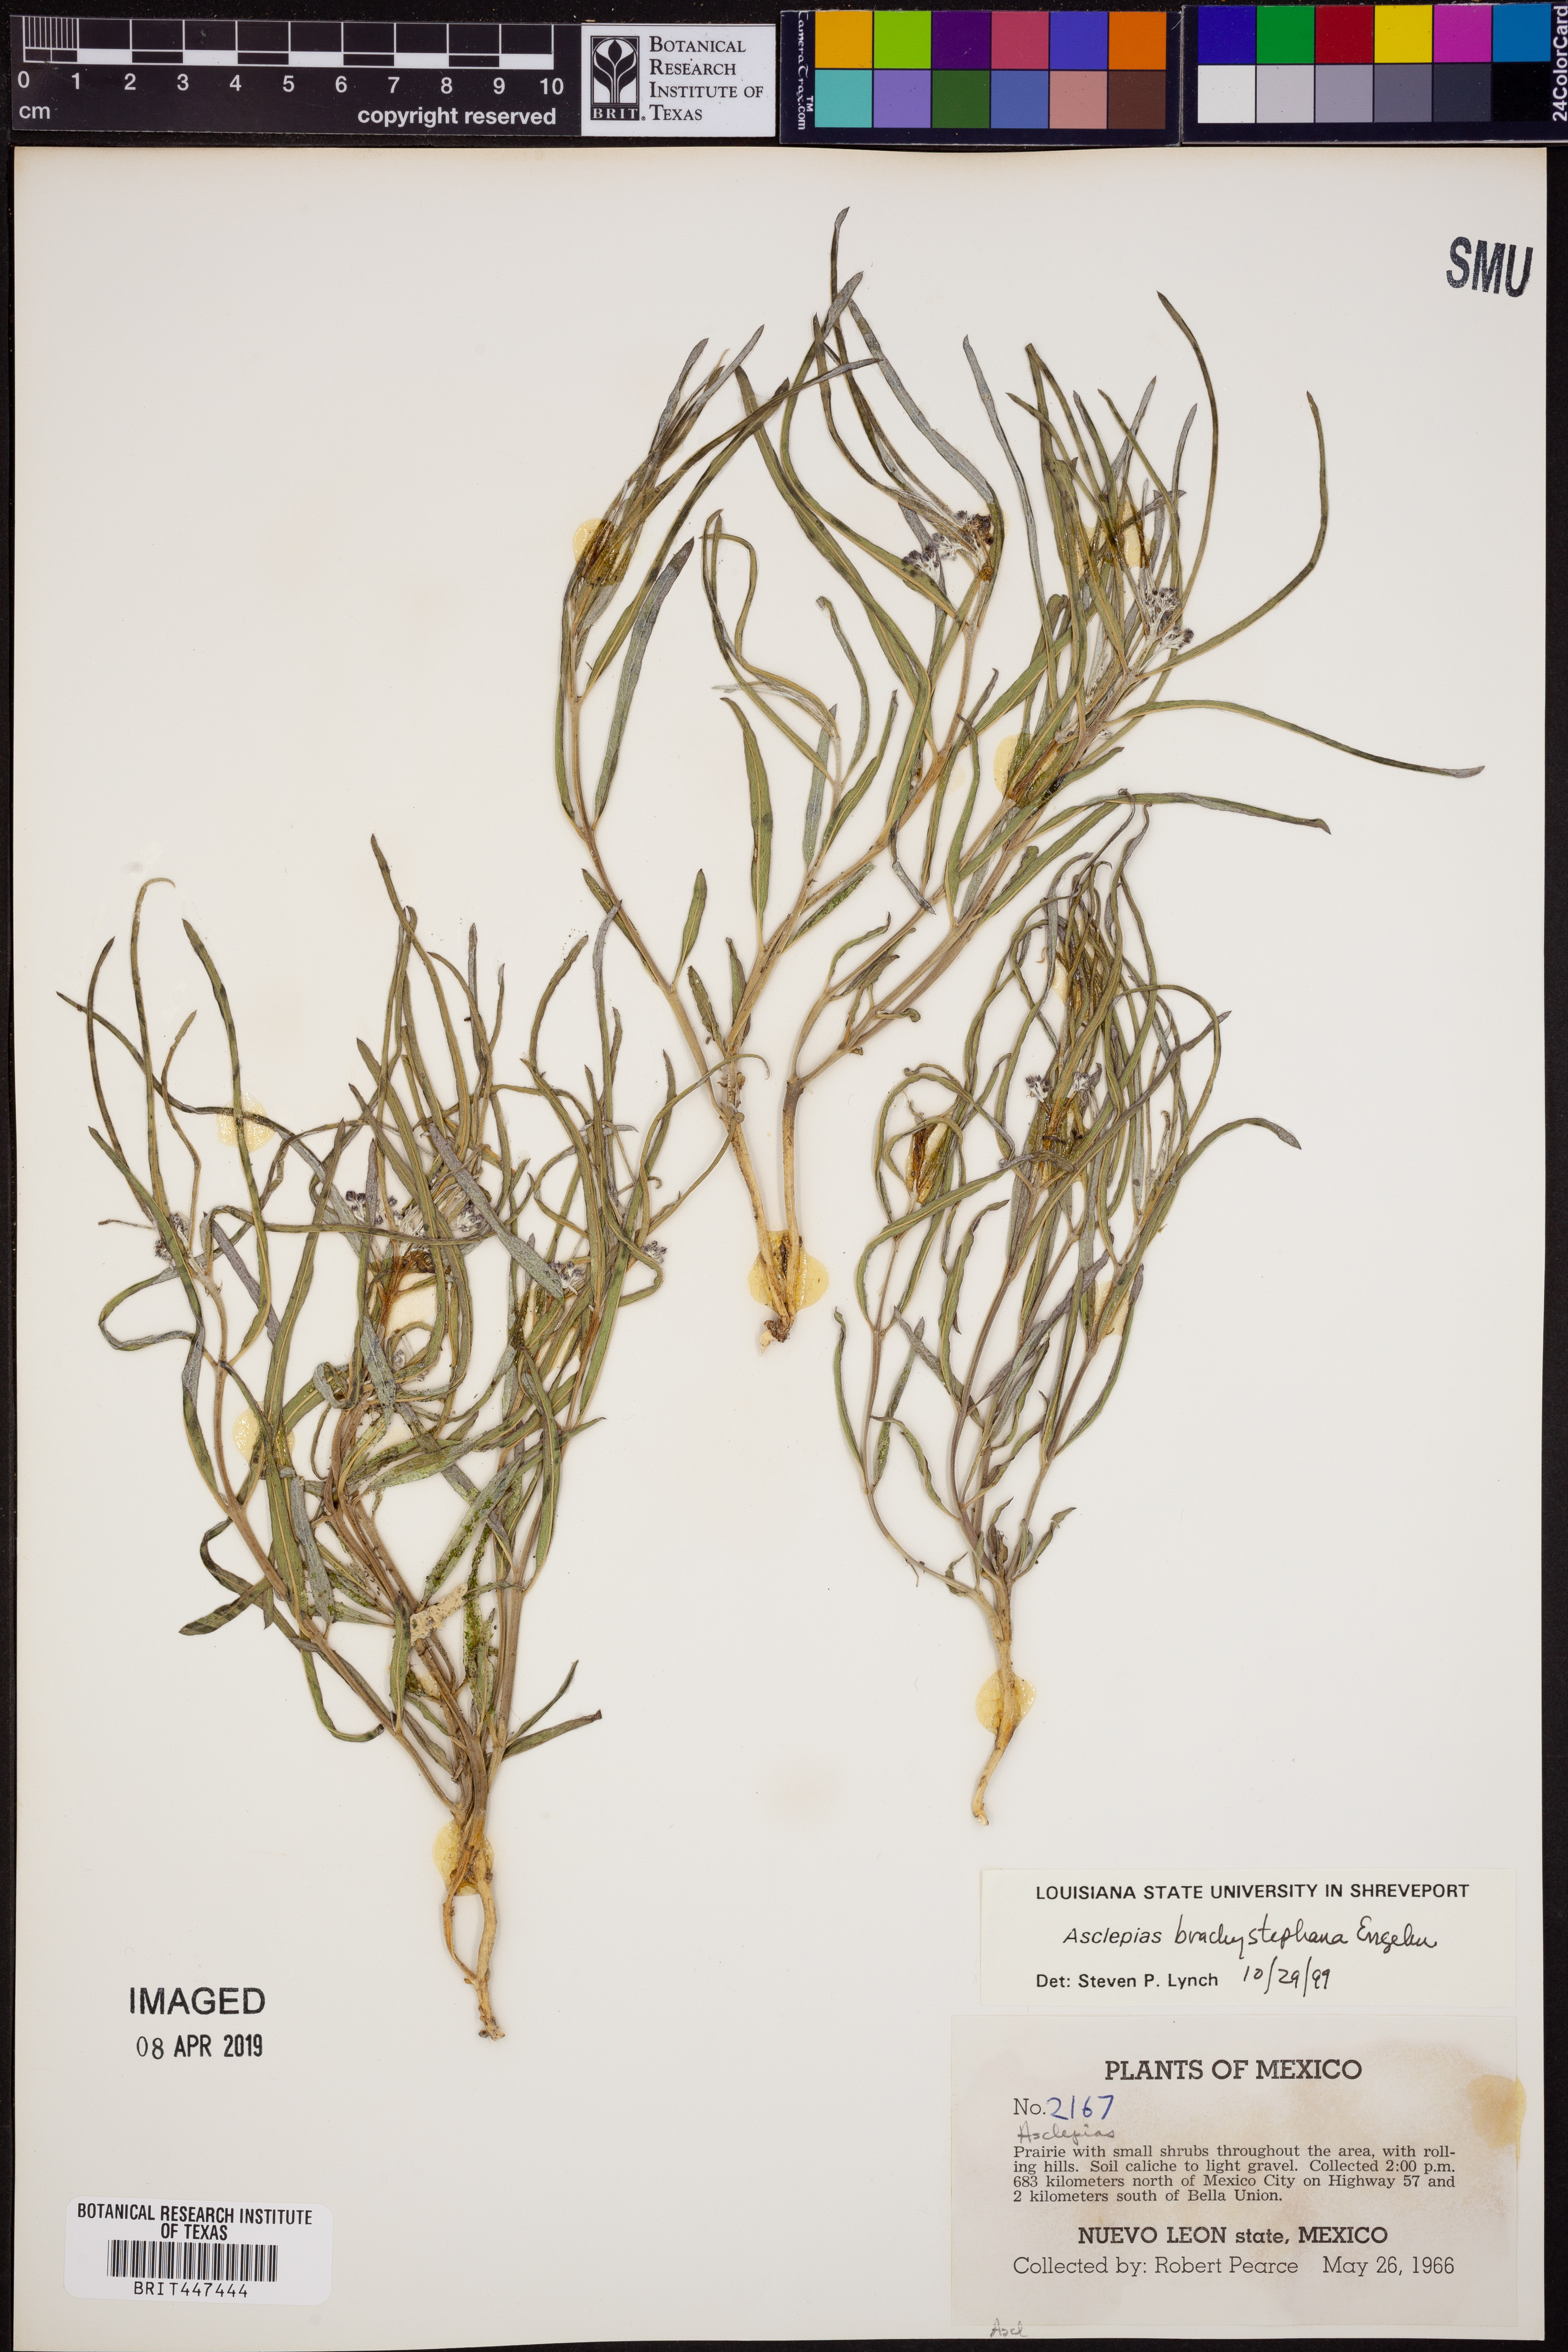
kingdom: Plantae
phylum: Tracheophyta
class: Magnoliopsida
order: Gentianales
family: Apocynaceae
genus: Asclepias
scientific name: Asclepias brachystephana
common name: Shortcrown milkweed
